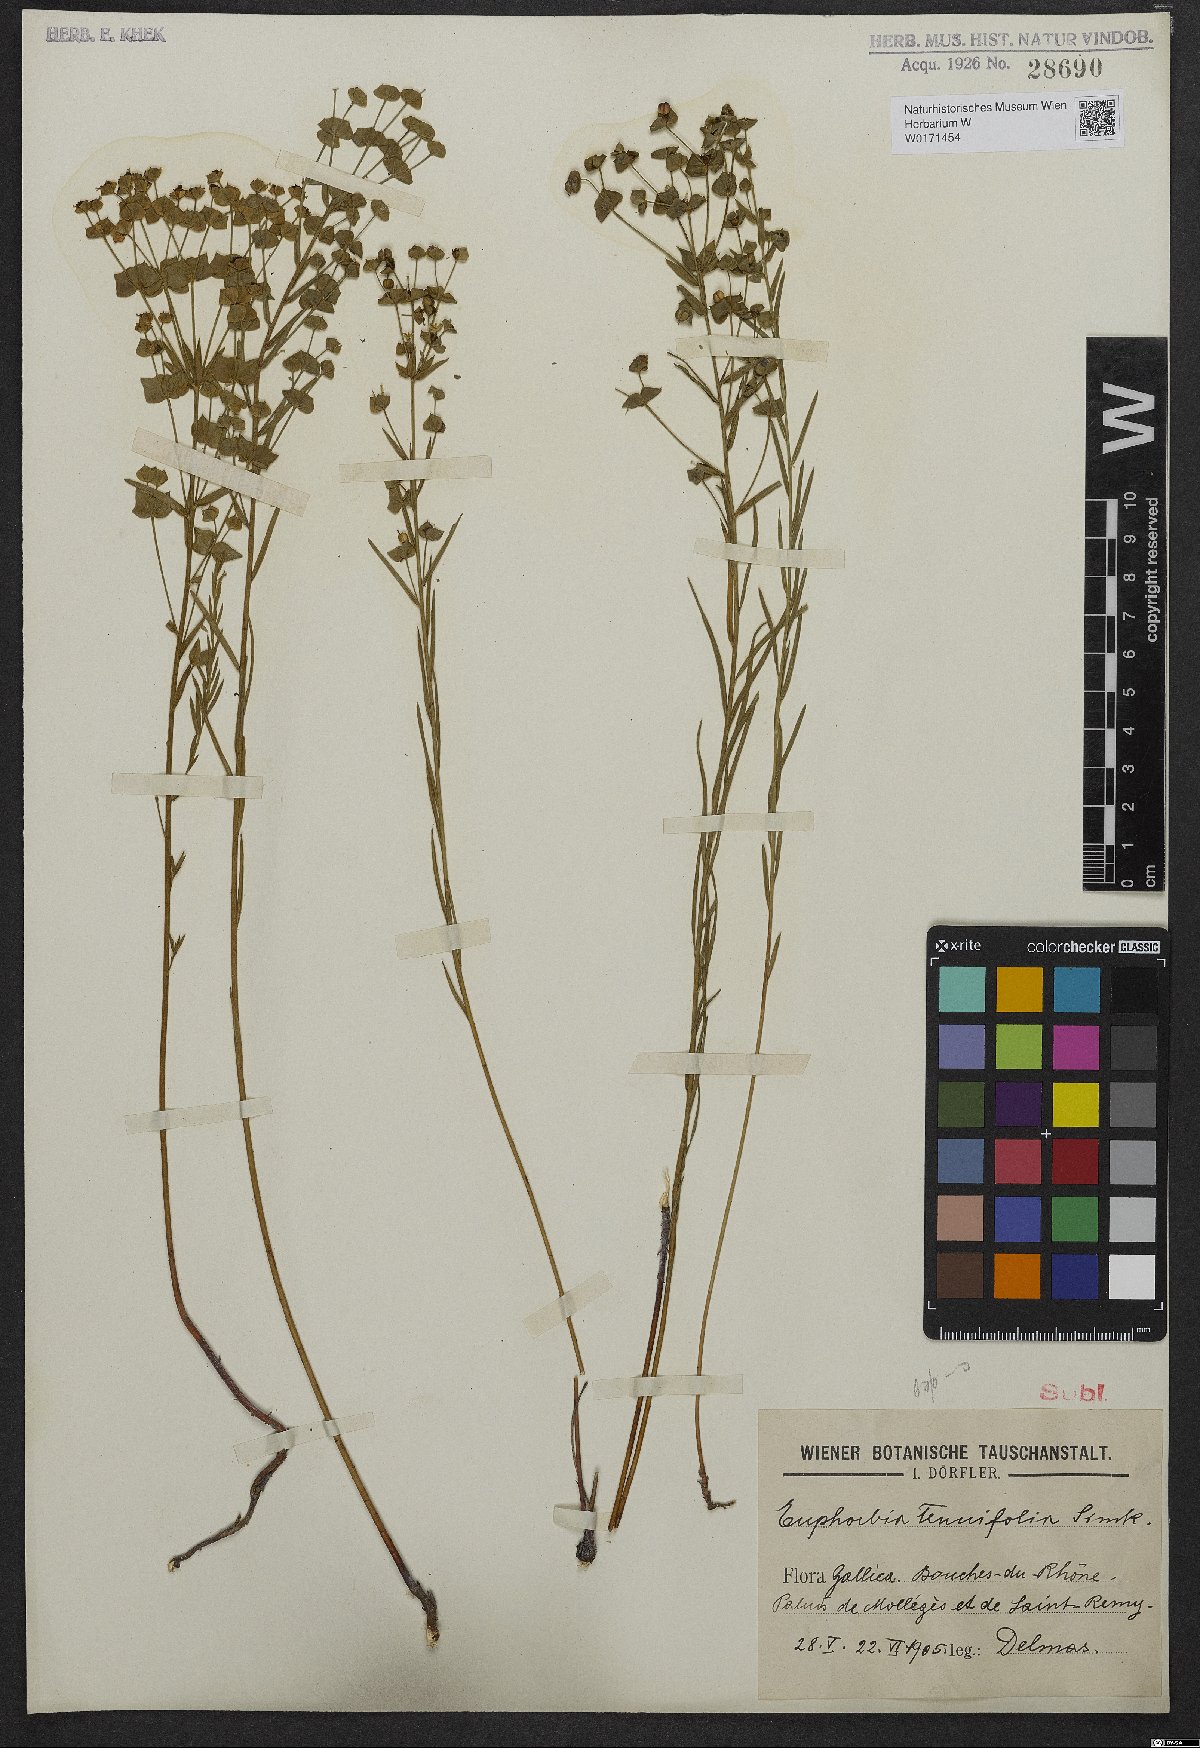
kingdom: Plantae
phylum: Tracheophyta
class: Magnoliopsida
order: Malpighiales
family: Euphorbiaceae
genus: Euphorbia
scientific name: Euphorbia graminifolia
